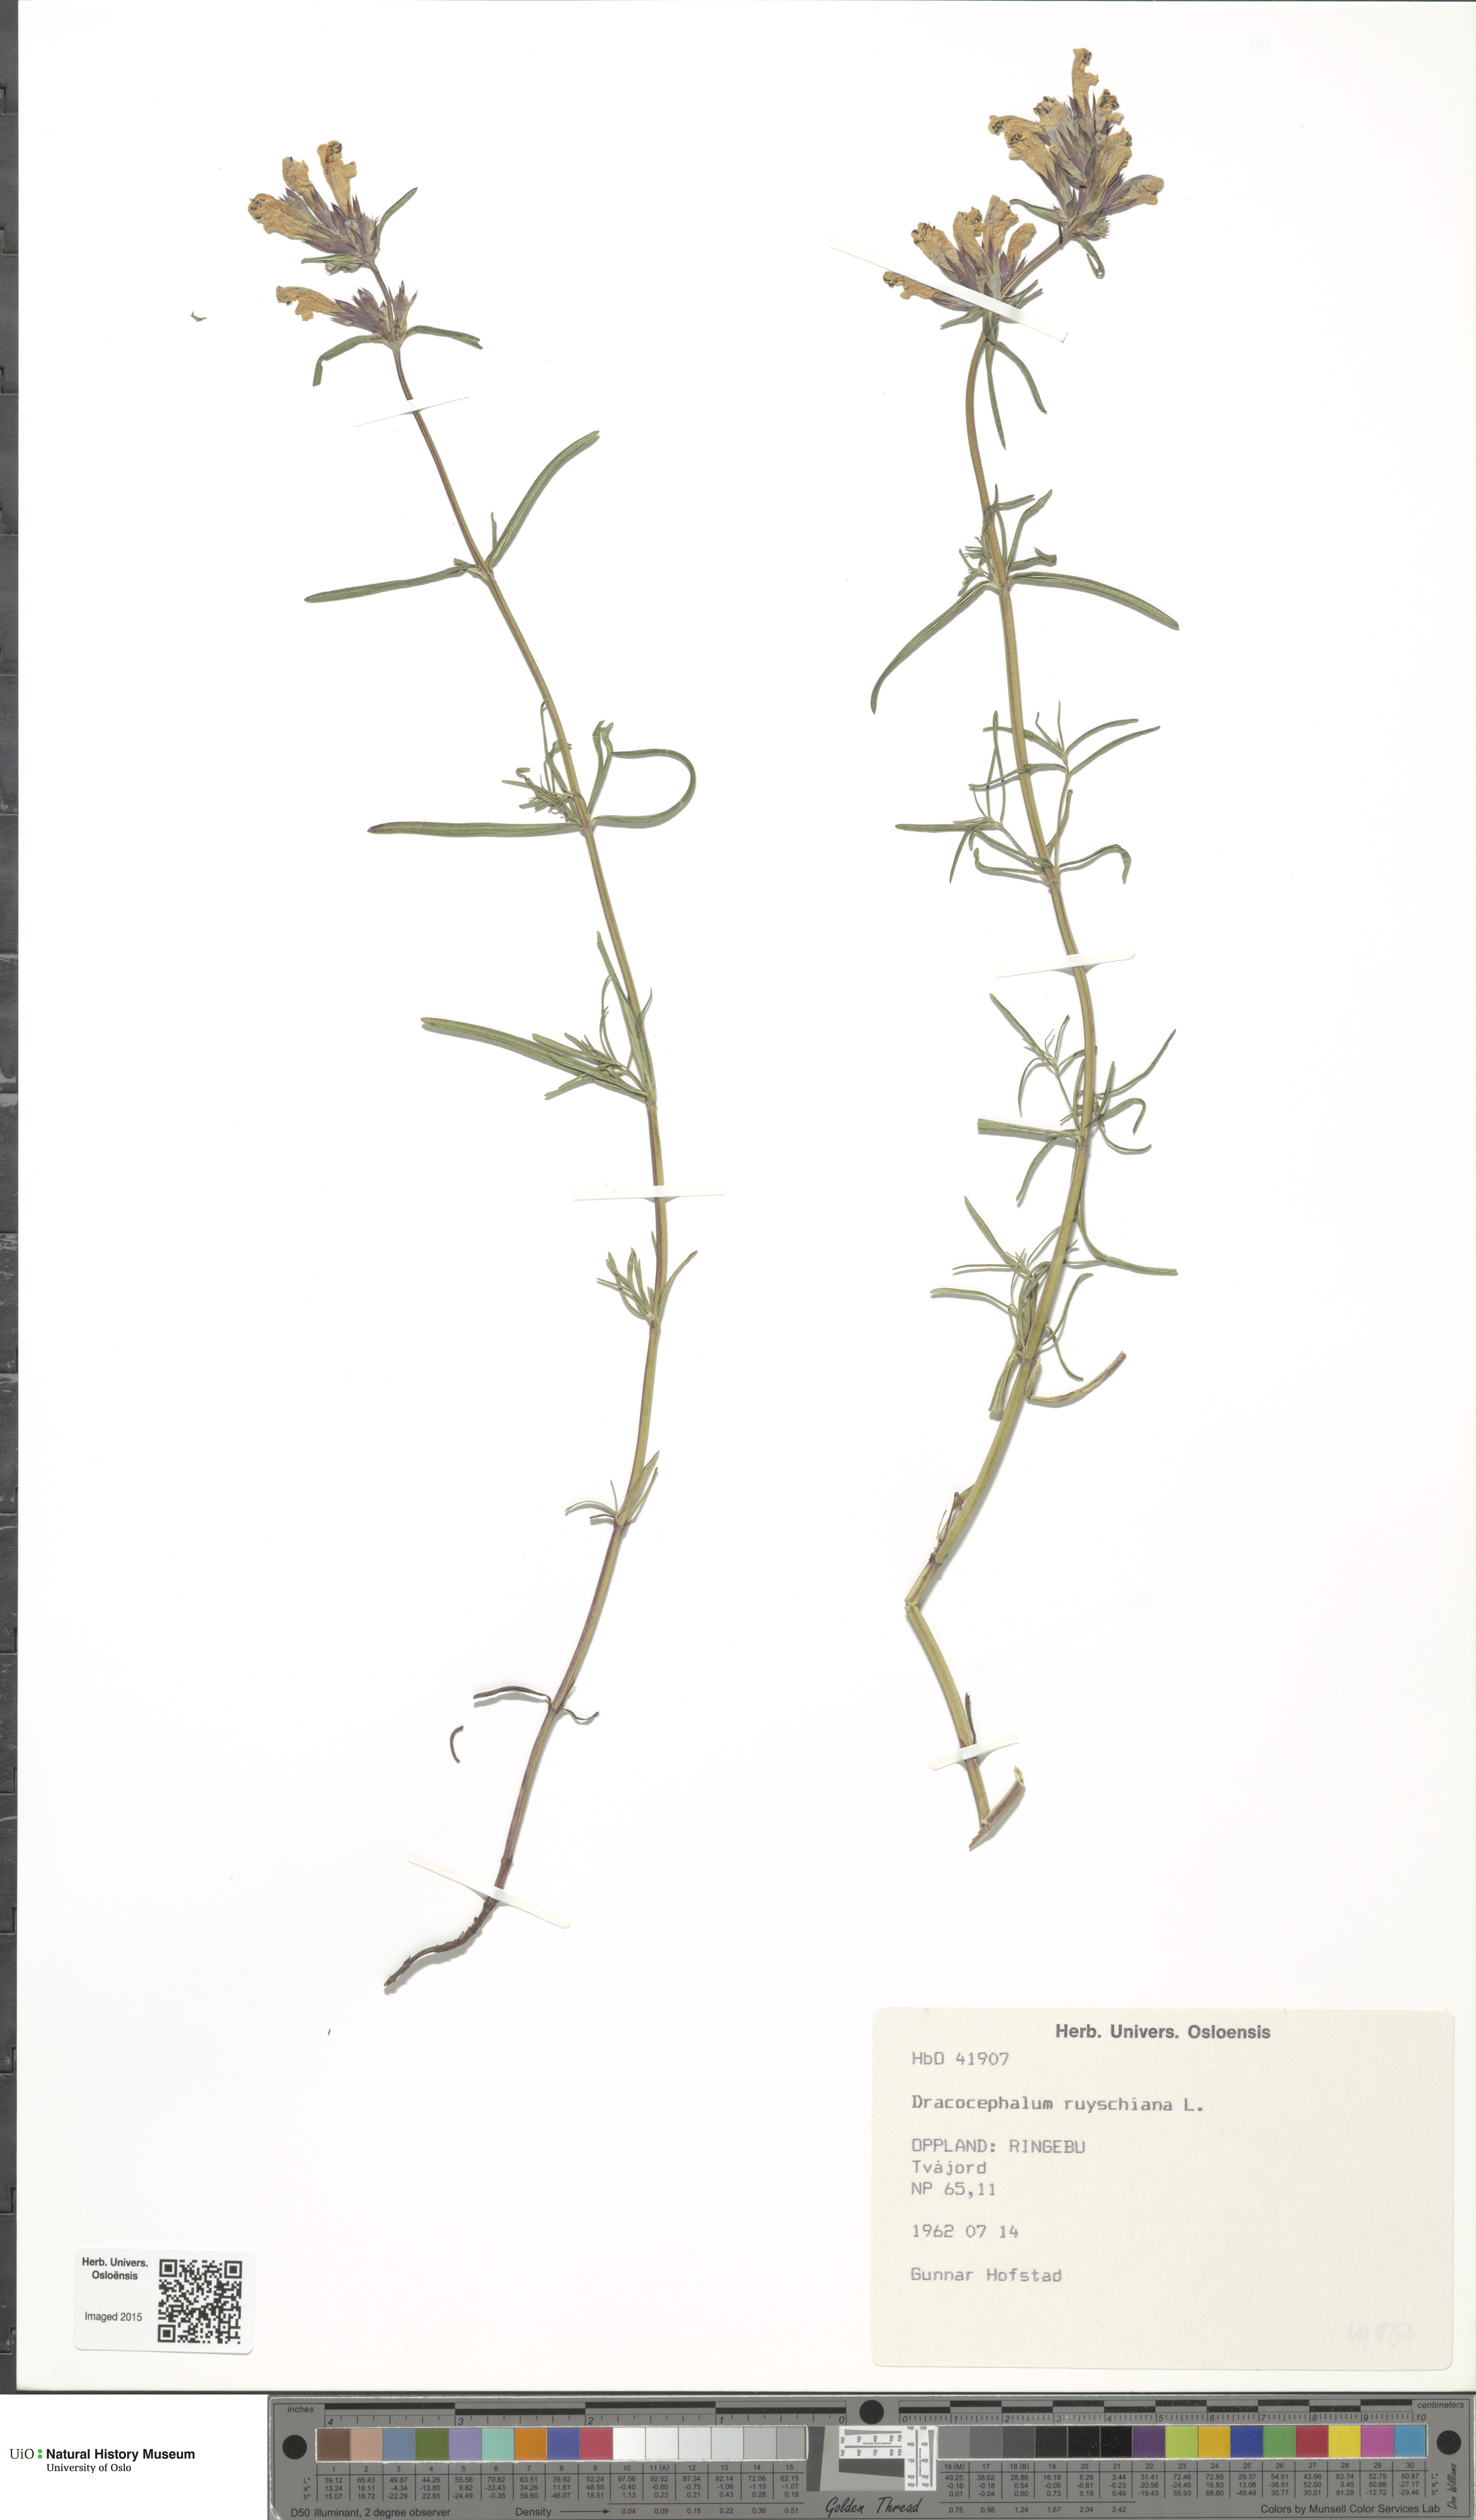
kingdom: Plantae
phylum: Tracheophyta
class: Magnoliopsida
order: Lamiales
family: Lamiaceae
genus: Dracocephalum
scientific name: Dracocephalum ruyschiana
